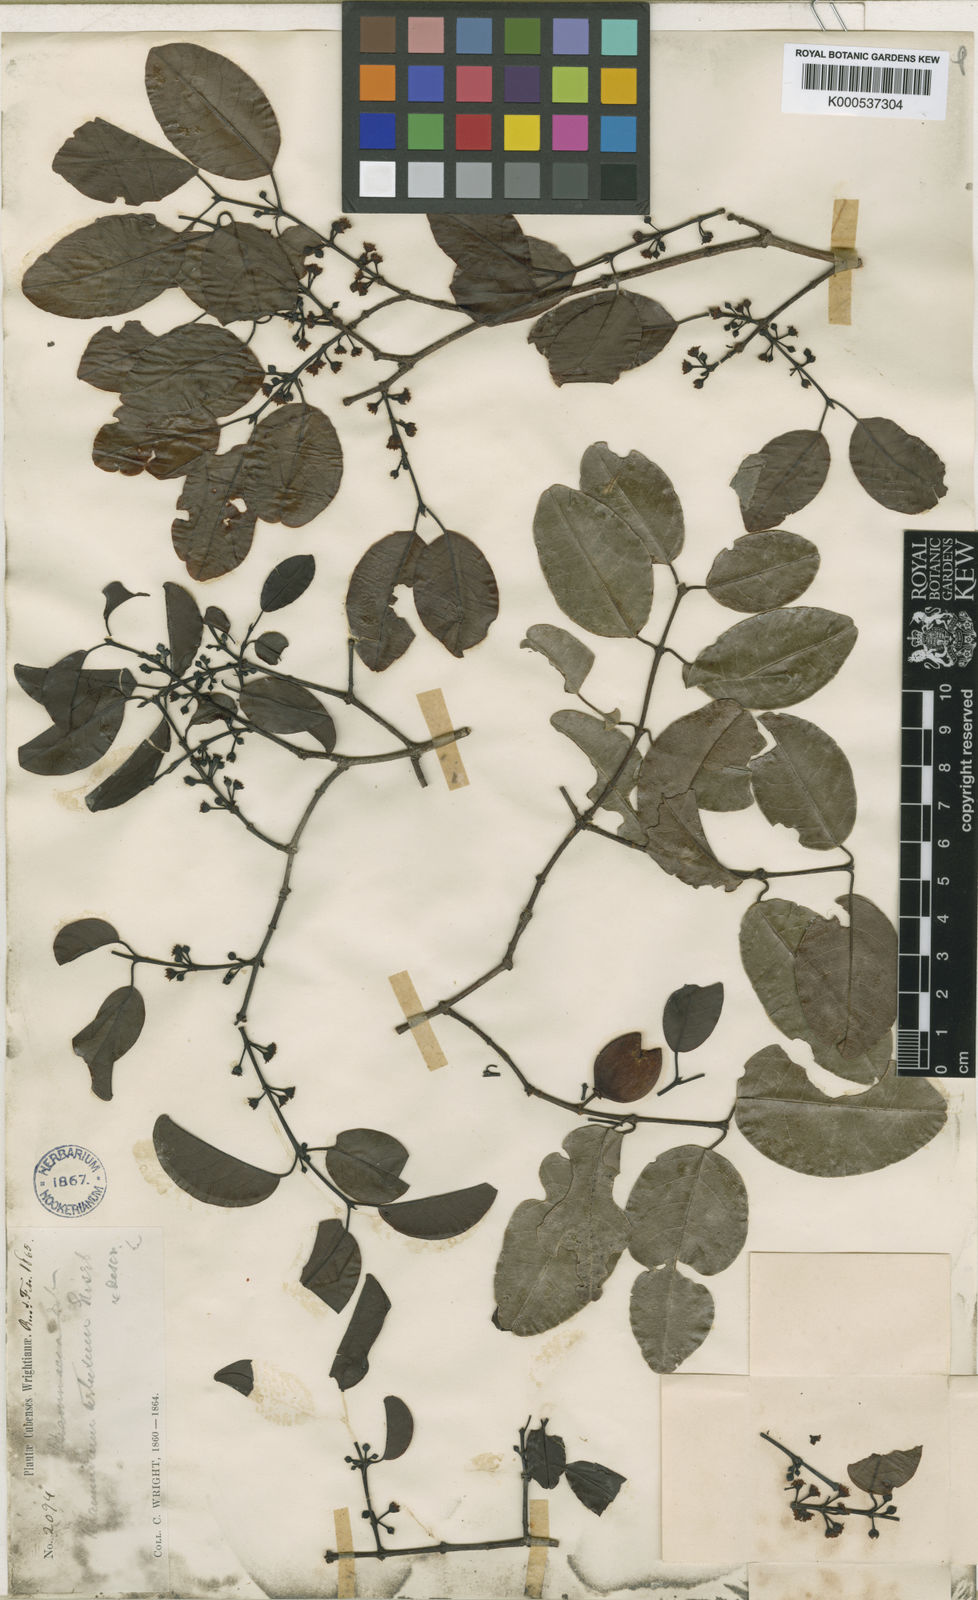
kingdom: Plantae
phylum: Tracheophyta
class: Magnoliopsida
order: Rosales
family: Rhamnaceae
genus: Reynosia
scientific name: Reynosia wrightii
